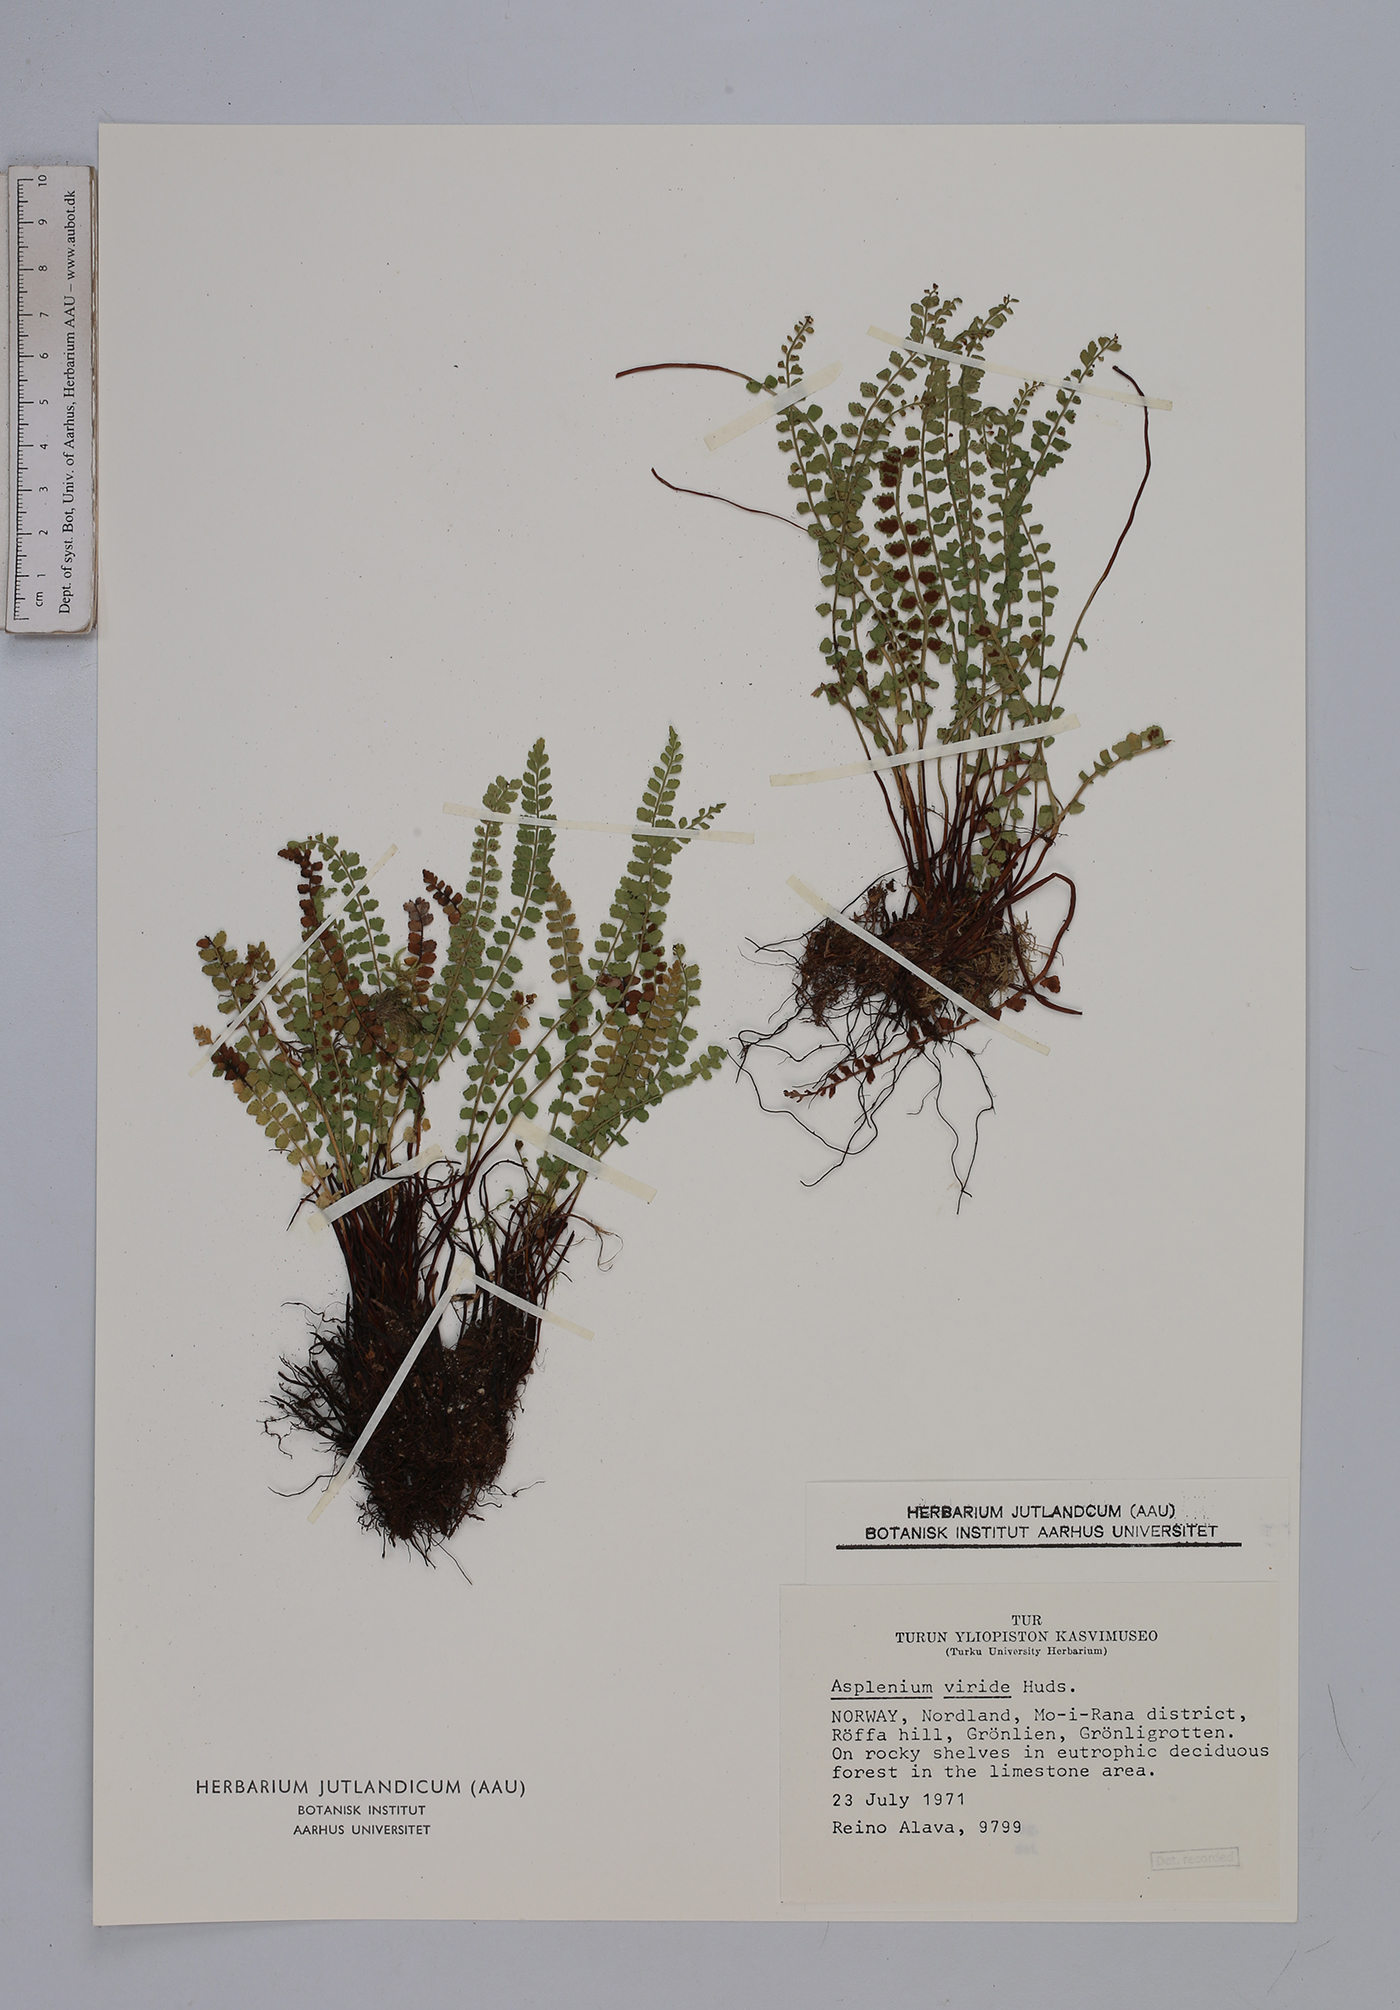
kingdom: Plantae
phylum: Tracheophyta
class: Polypodiopsida
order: Polypodiales
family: Aspleniaceae
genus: Asplenium
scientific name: Asplenium viride
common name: Green spleenwort
